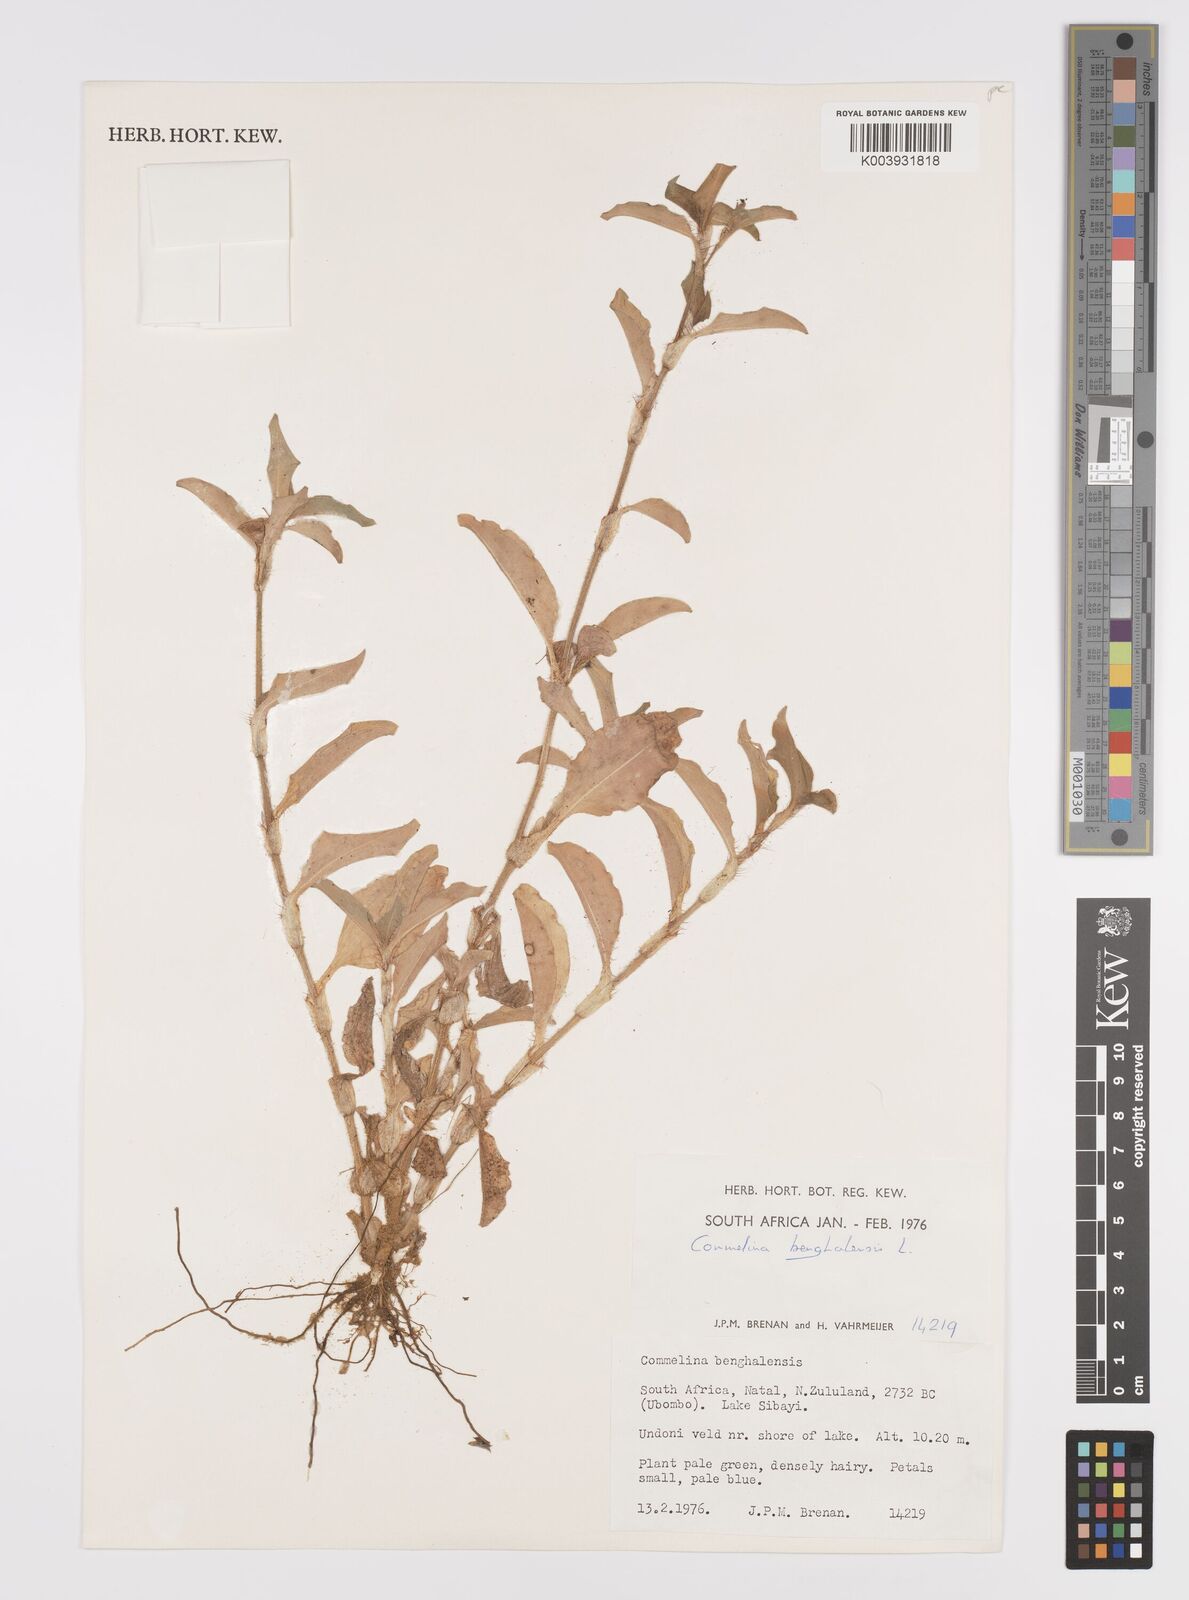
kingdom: Plantae
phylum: Tracheophyta
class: Liliopsida
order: Commelinales
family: Commelinaceae
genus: Commelina
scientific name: Commelina benghalensis
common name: Jio
